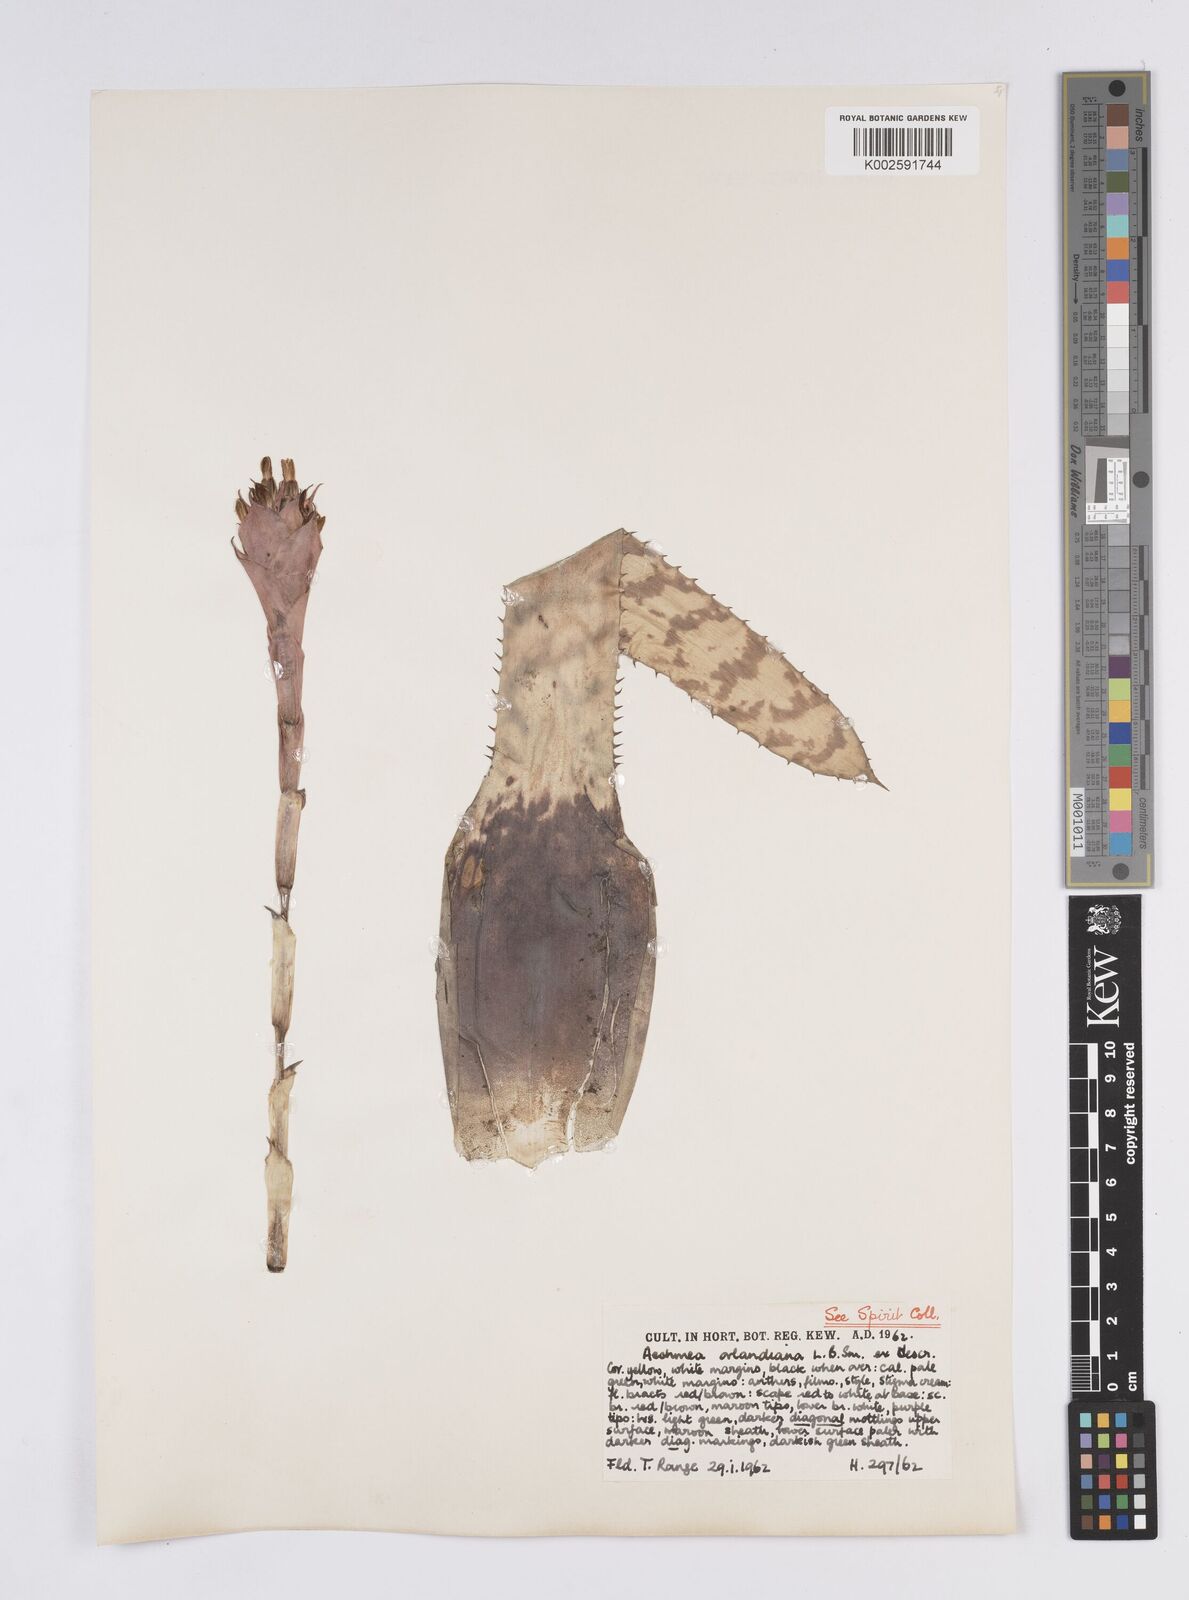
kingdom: Plantae
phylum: Tracheophyta
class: Liliopsida
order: Poales
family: Bromeliaceae
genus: Aechmea
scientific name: Aechmea orlandiana
